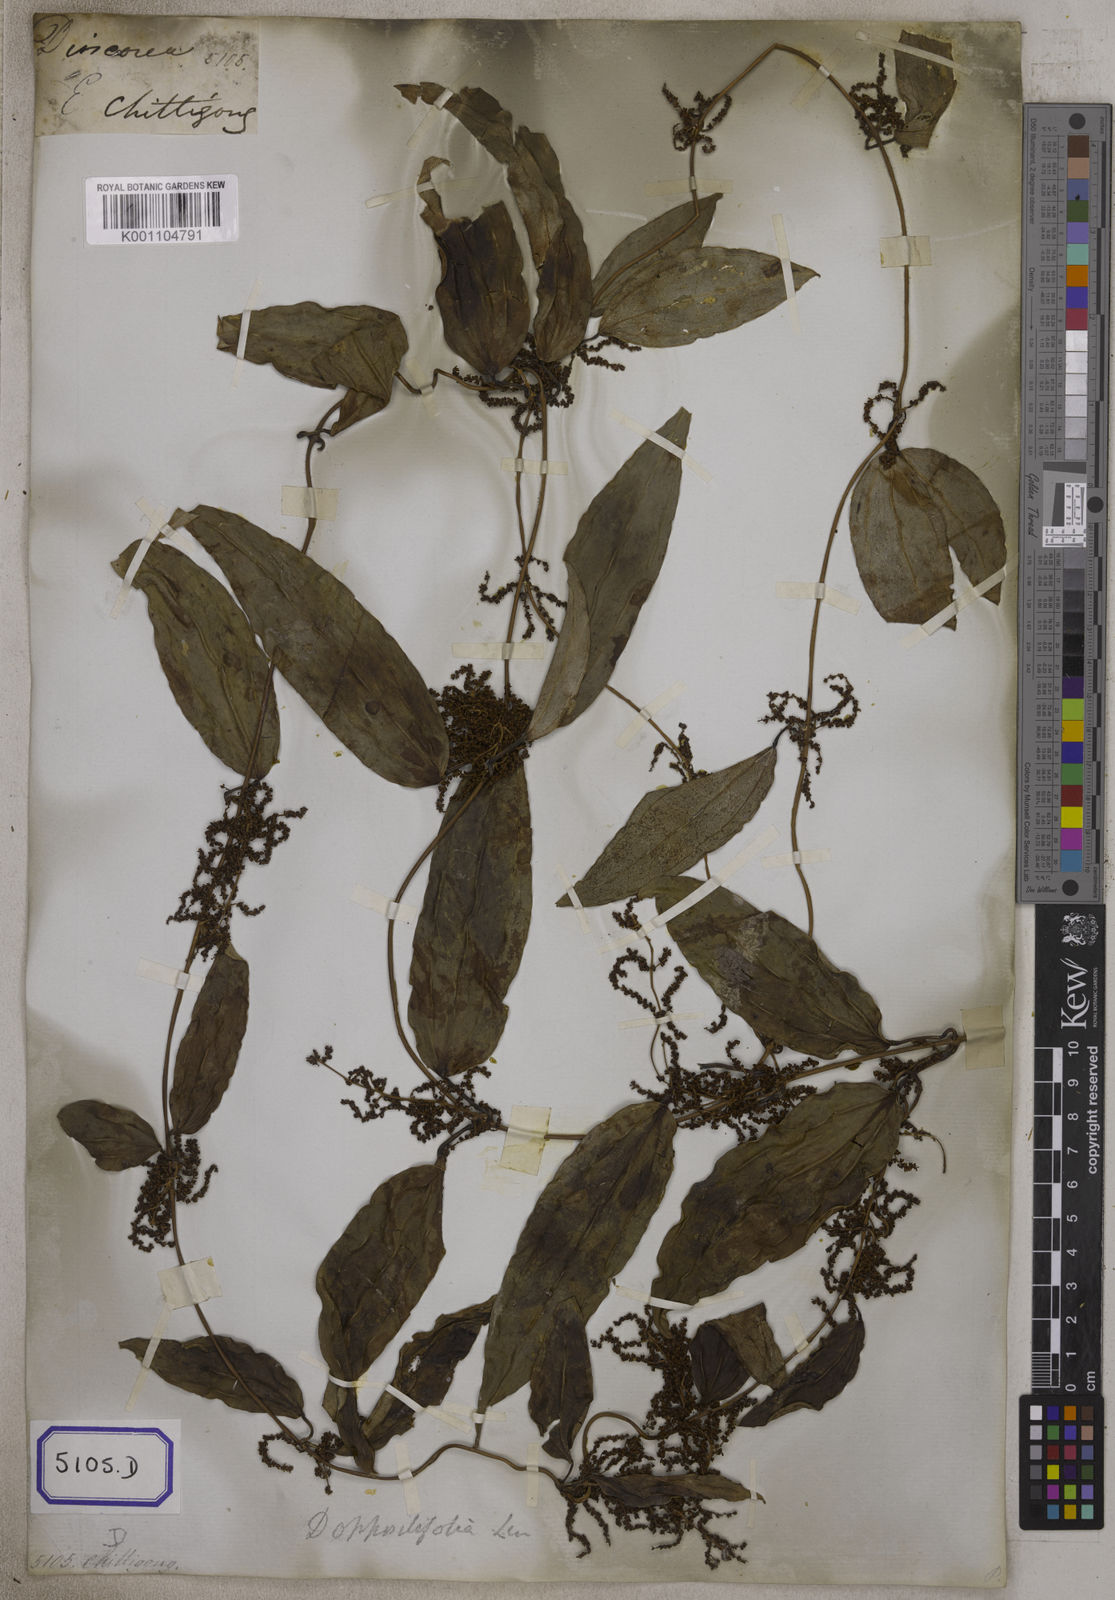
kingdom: Plantae
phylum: Tracheophyta
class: Liliopsida
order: Dioscoreales
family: Dioscoreaceae
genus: Dioscorea
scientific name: Dioscorea glabra
